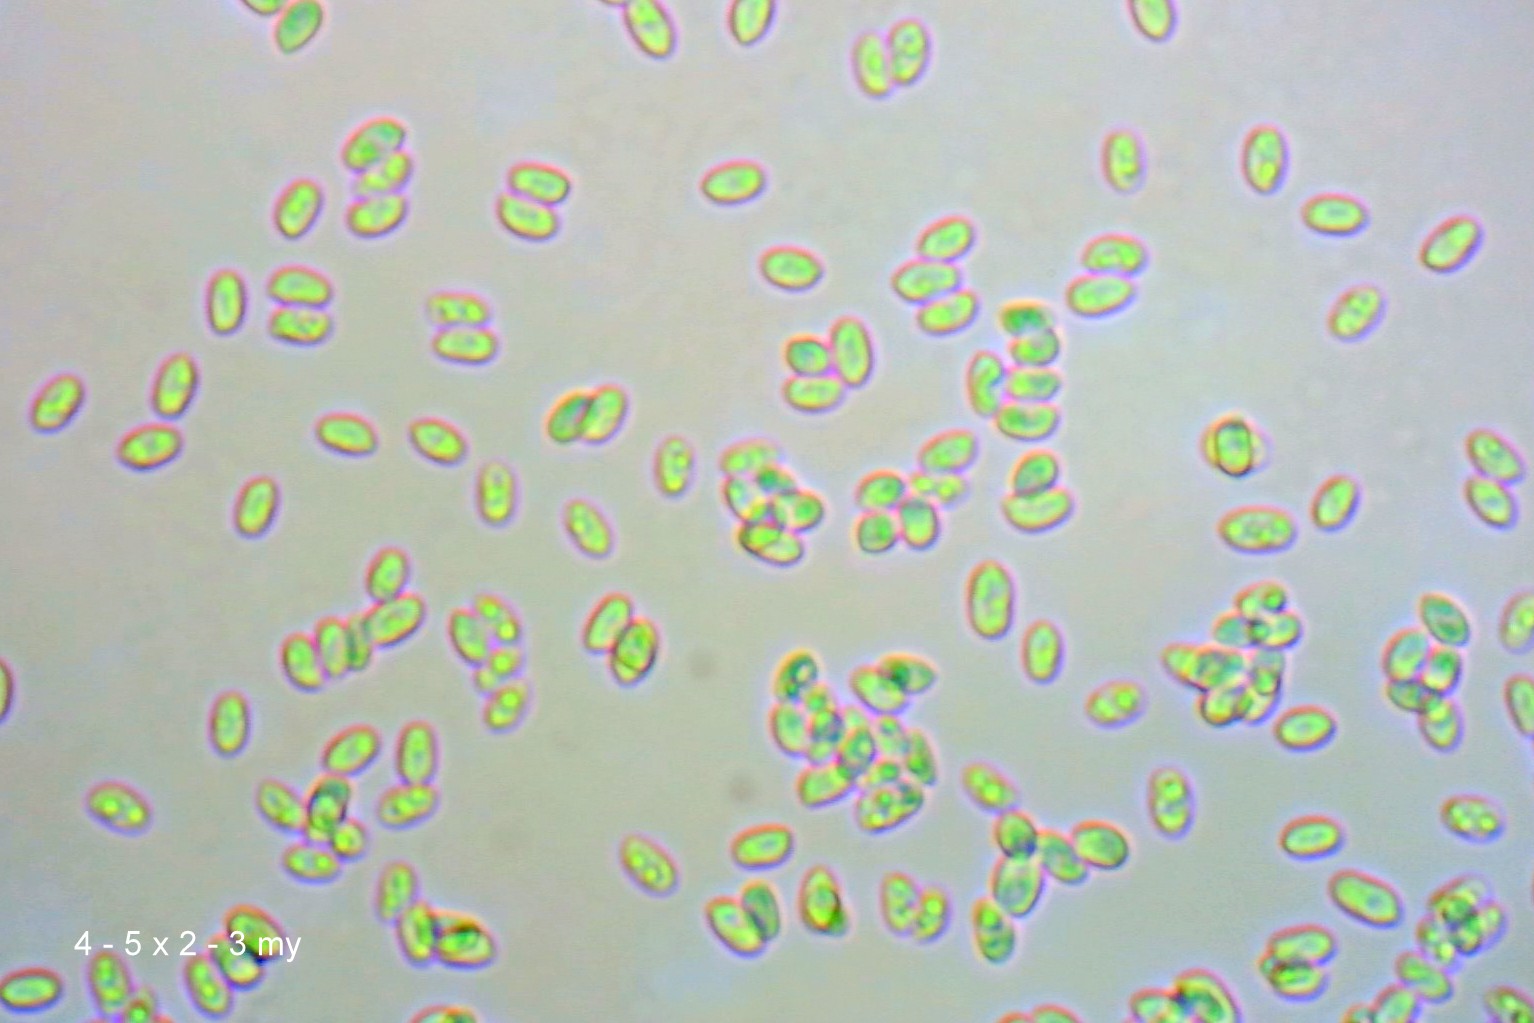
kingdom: Fungi
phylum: Basidiomycota
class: Agaricomycetes
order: Agaricales
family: Agaricaceae
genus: Cystodermella
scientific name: Cystodermella granulosa
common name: kliddet grynhat
